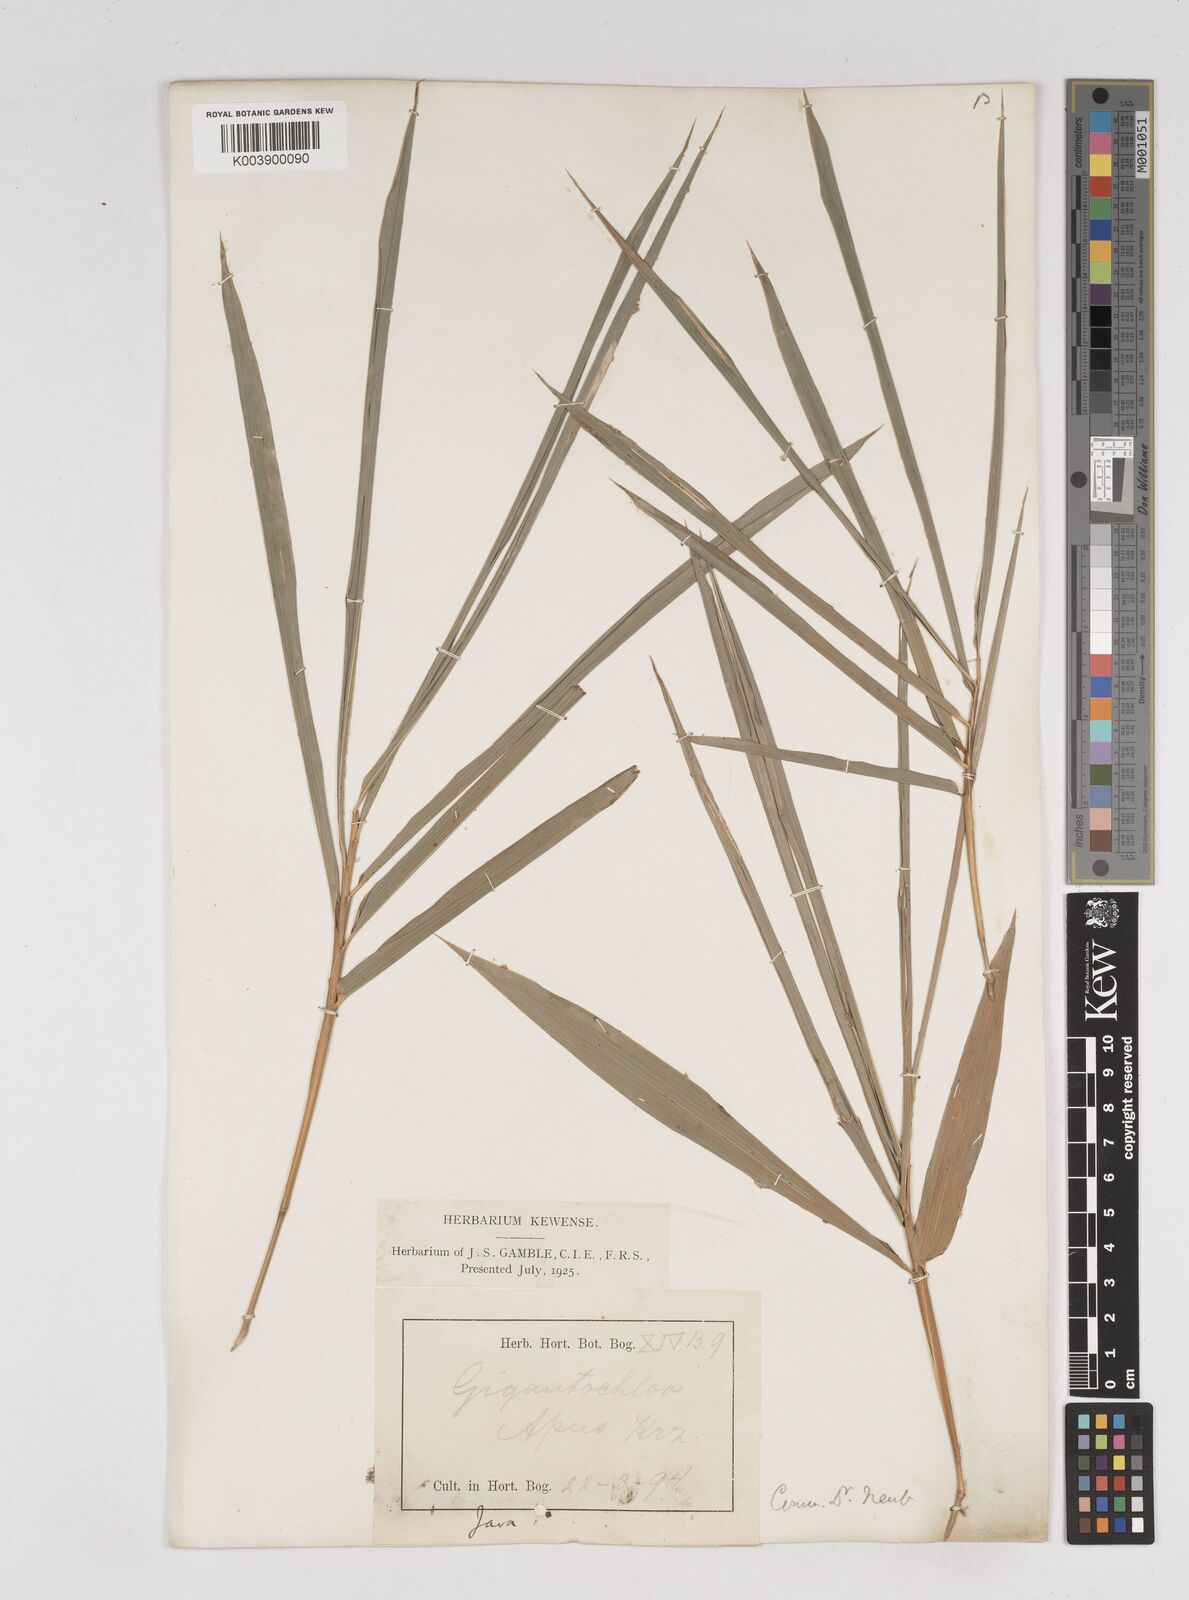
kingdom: Plantae
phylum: Tracheophyta
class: Liliopsida
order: Poales
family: Poaceae
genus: Gigantochloa
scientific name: Gigantochloa apus
